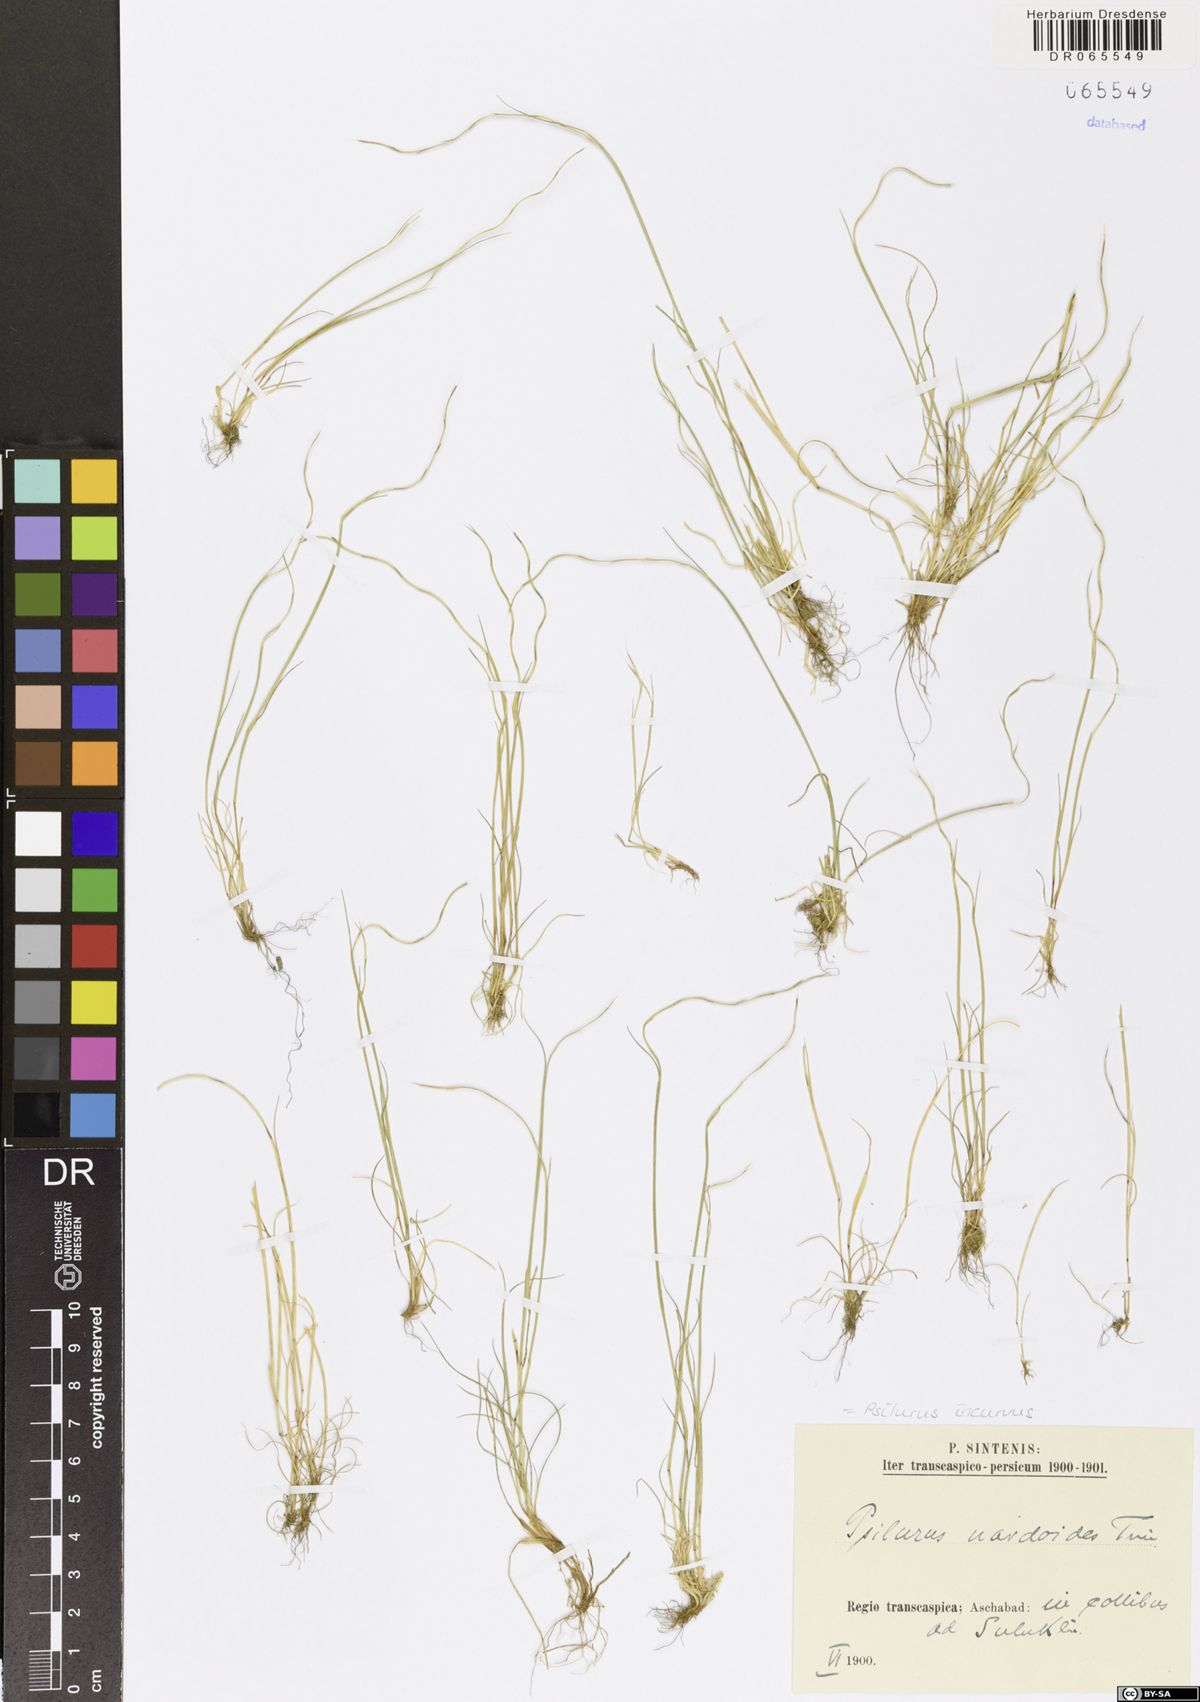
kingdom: Plantae
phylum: Tracheophyta
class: Liliopsida
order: Poales
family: Poaceae
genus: Festuca
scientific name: Festuca incurva
